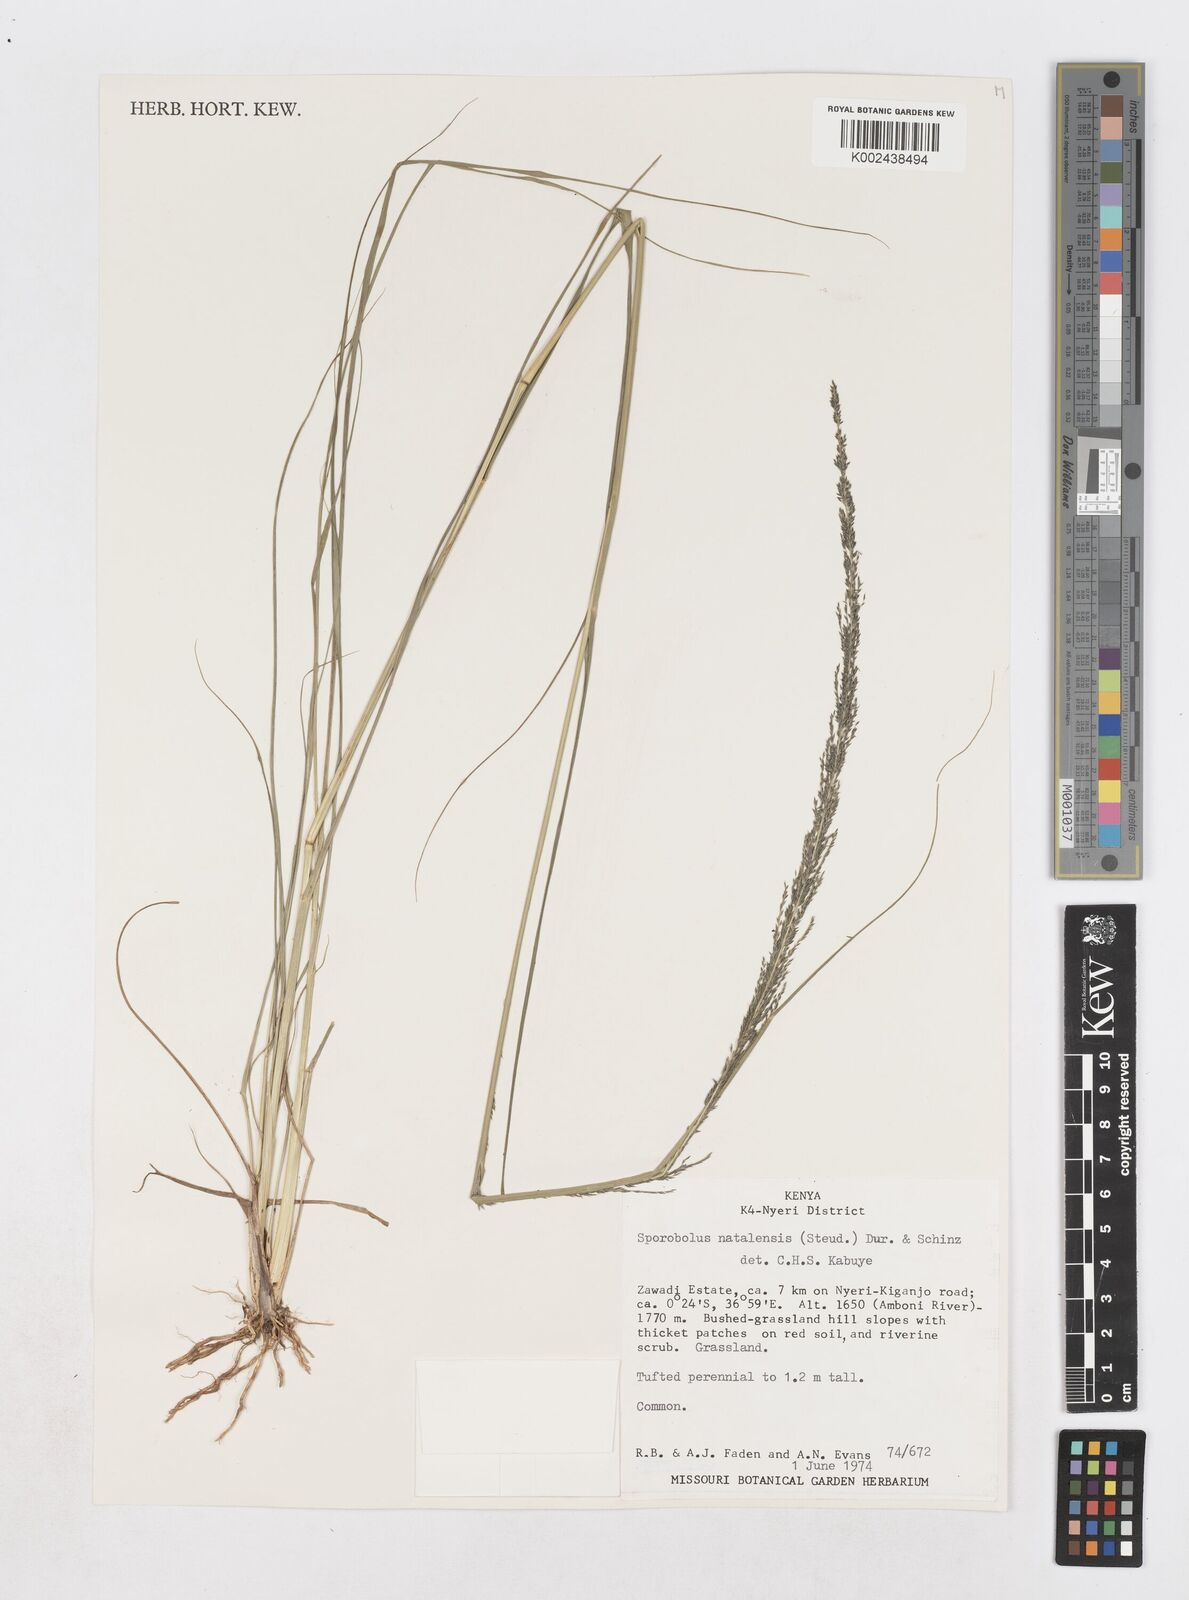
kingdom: Plantae
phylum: Tracheophyta
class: Liliopsida
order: Poales
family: Poaceae
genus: Sporobolus
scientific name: Sporobolus natalensis
